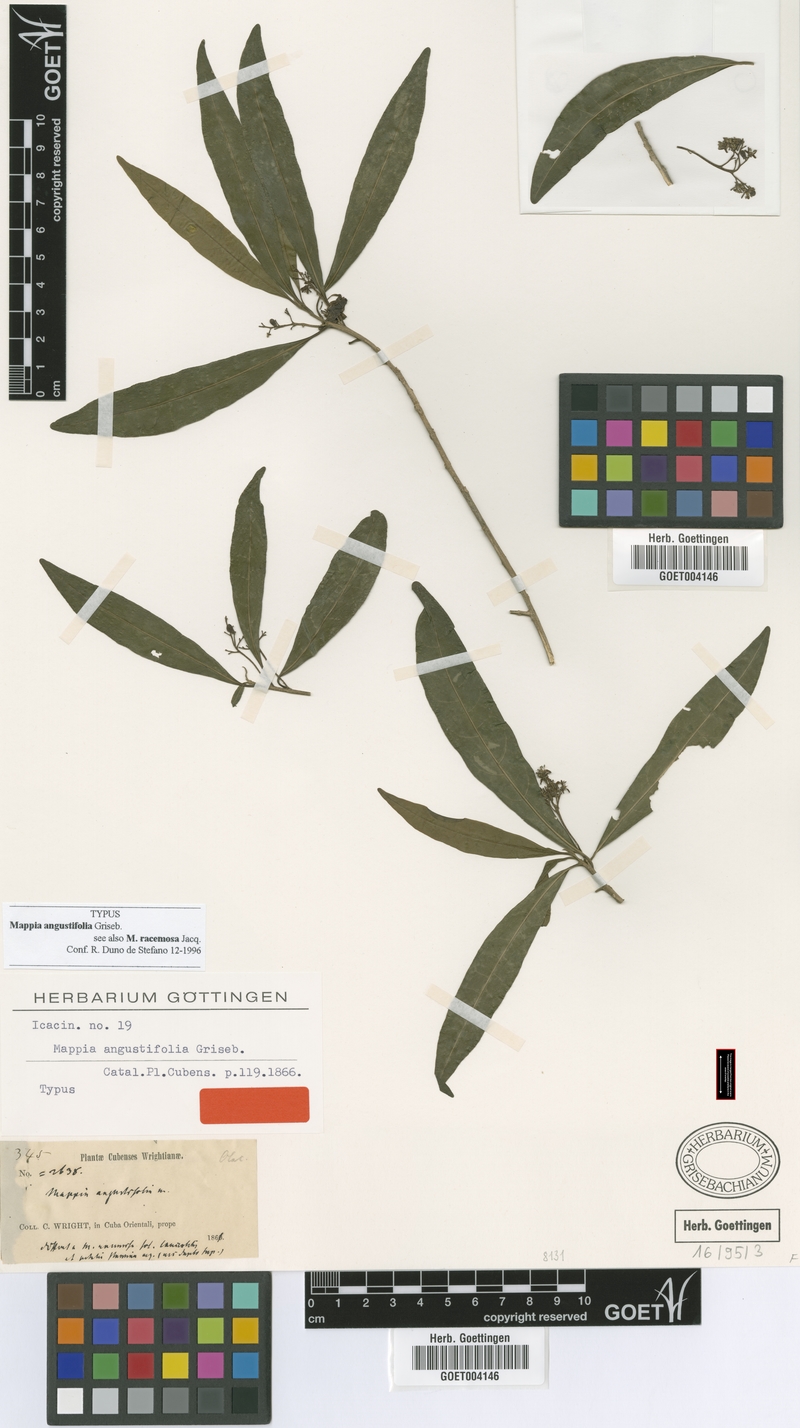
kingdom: Plantae
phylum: Tracheophyta
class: Magnoliopsida
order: Icacinales
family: Icacinaceae
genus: Mappia
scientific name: Mappia angustifolia
